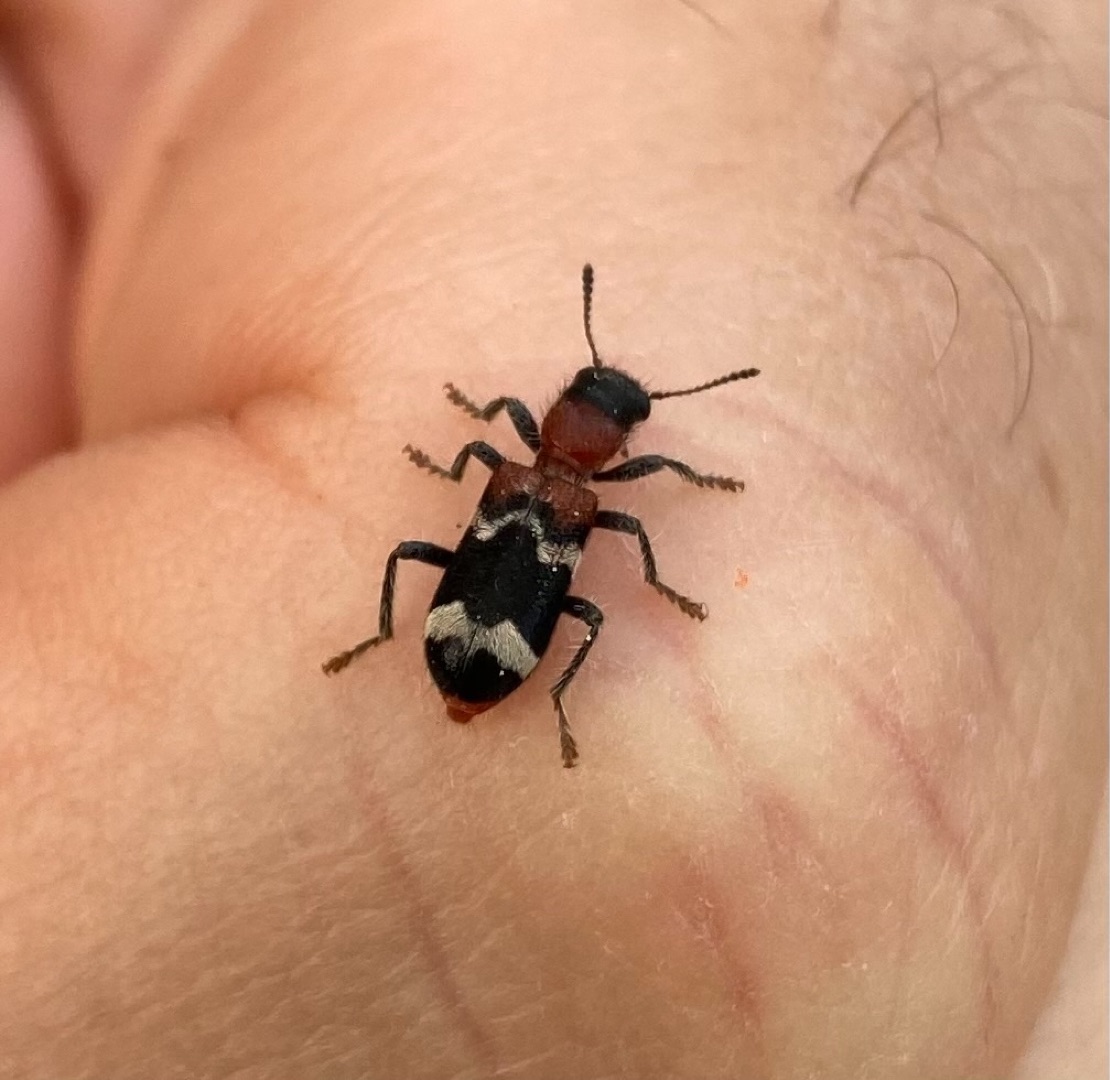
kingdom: Animalia
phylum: Arthropoda
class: Insecta
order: Coleoptera
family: Cleridae
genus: Thanasimus
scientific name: Thanasimus formicarius
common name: Myrebille
